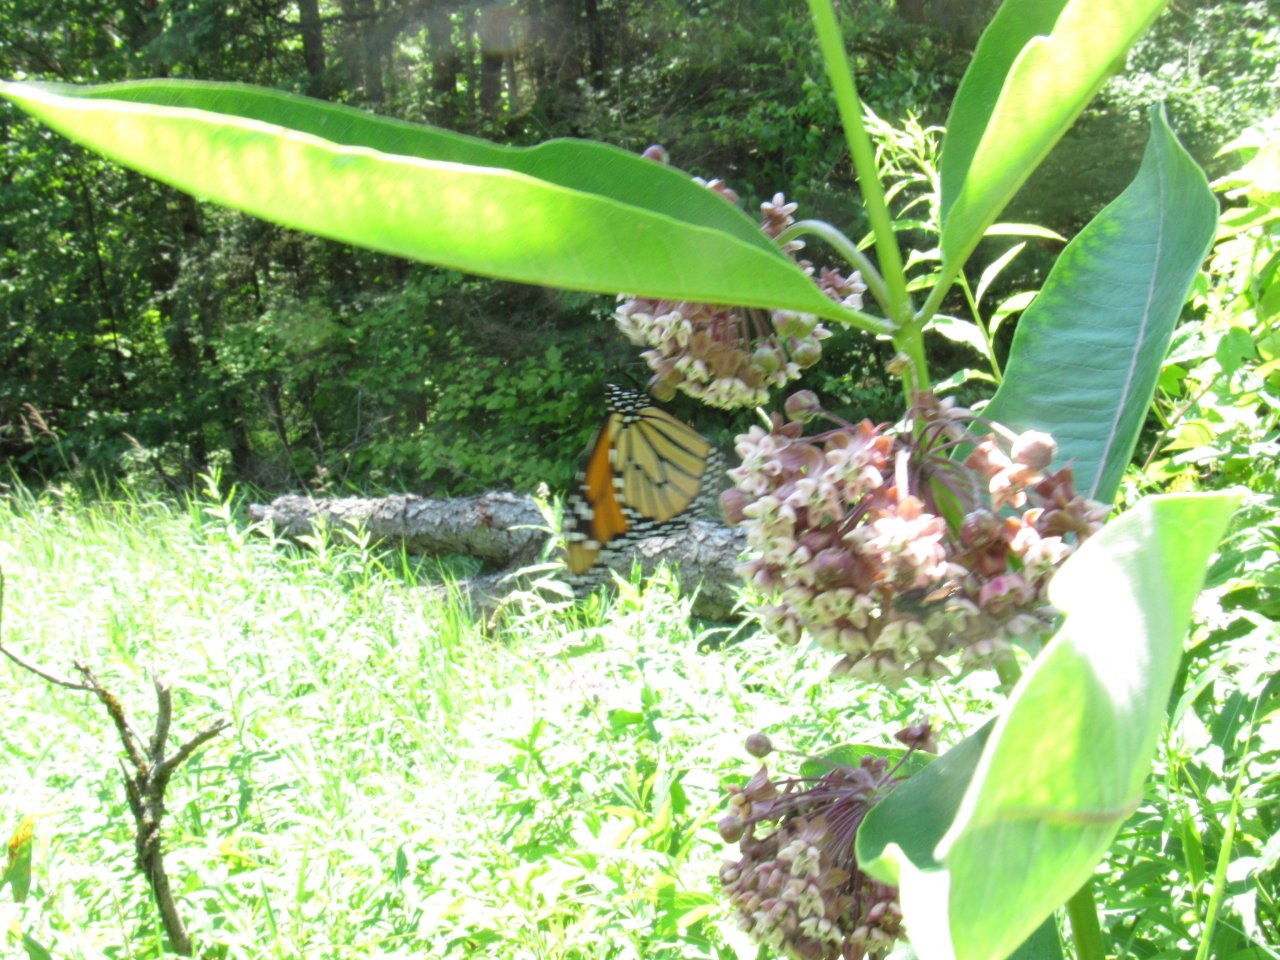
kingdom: Animalia
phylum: Arthropoda
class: Insecta
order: Lepidoptera
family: Nymphalidae
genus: Danaus
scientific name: Danaus plexippus
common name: Monarch
